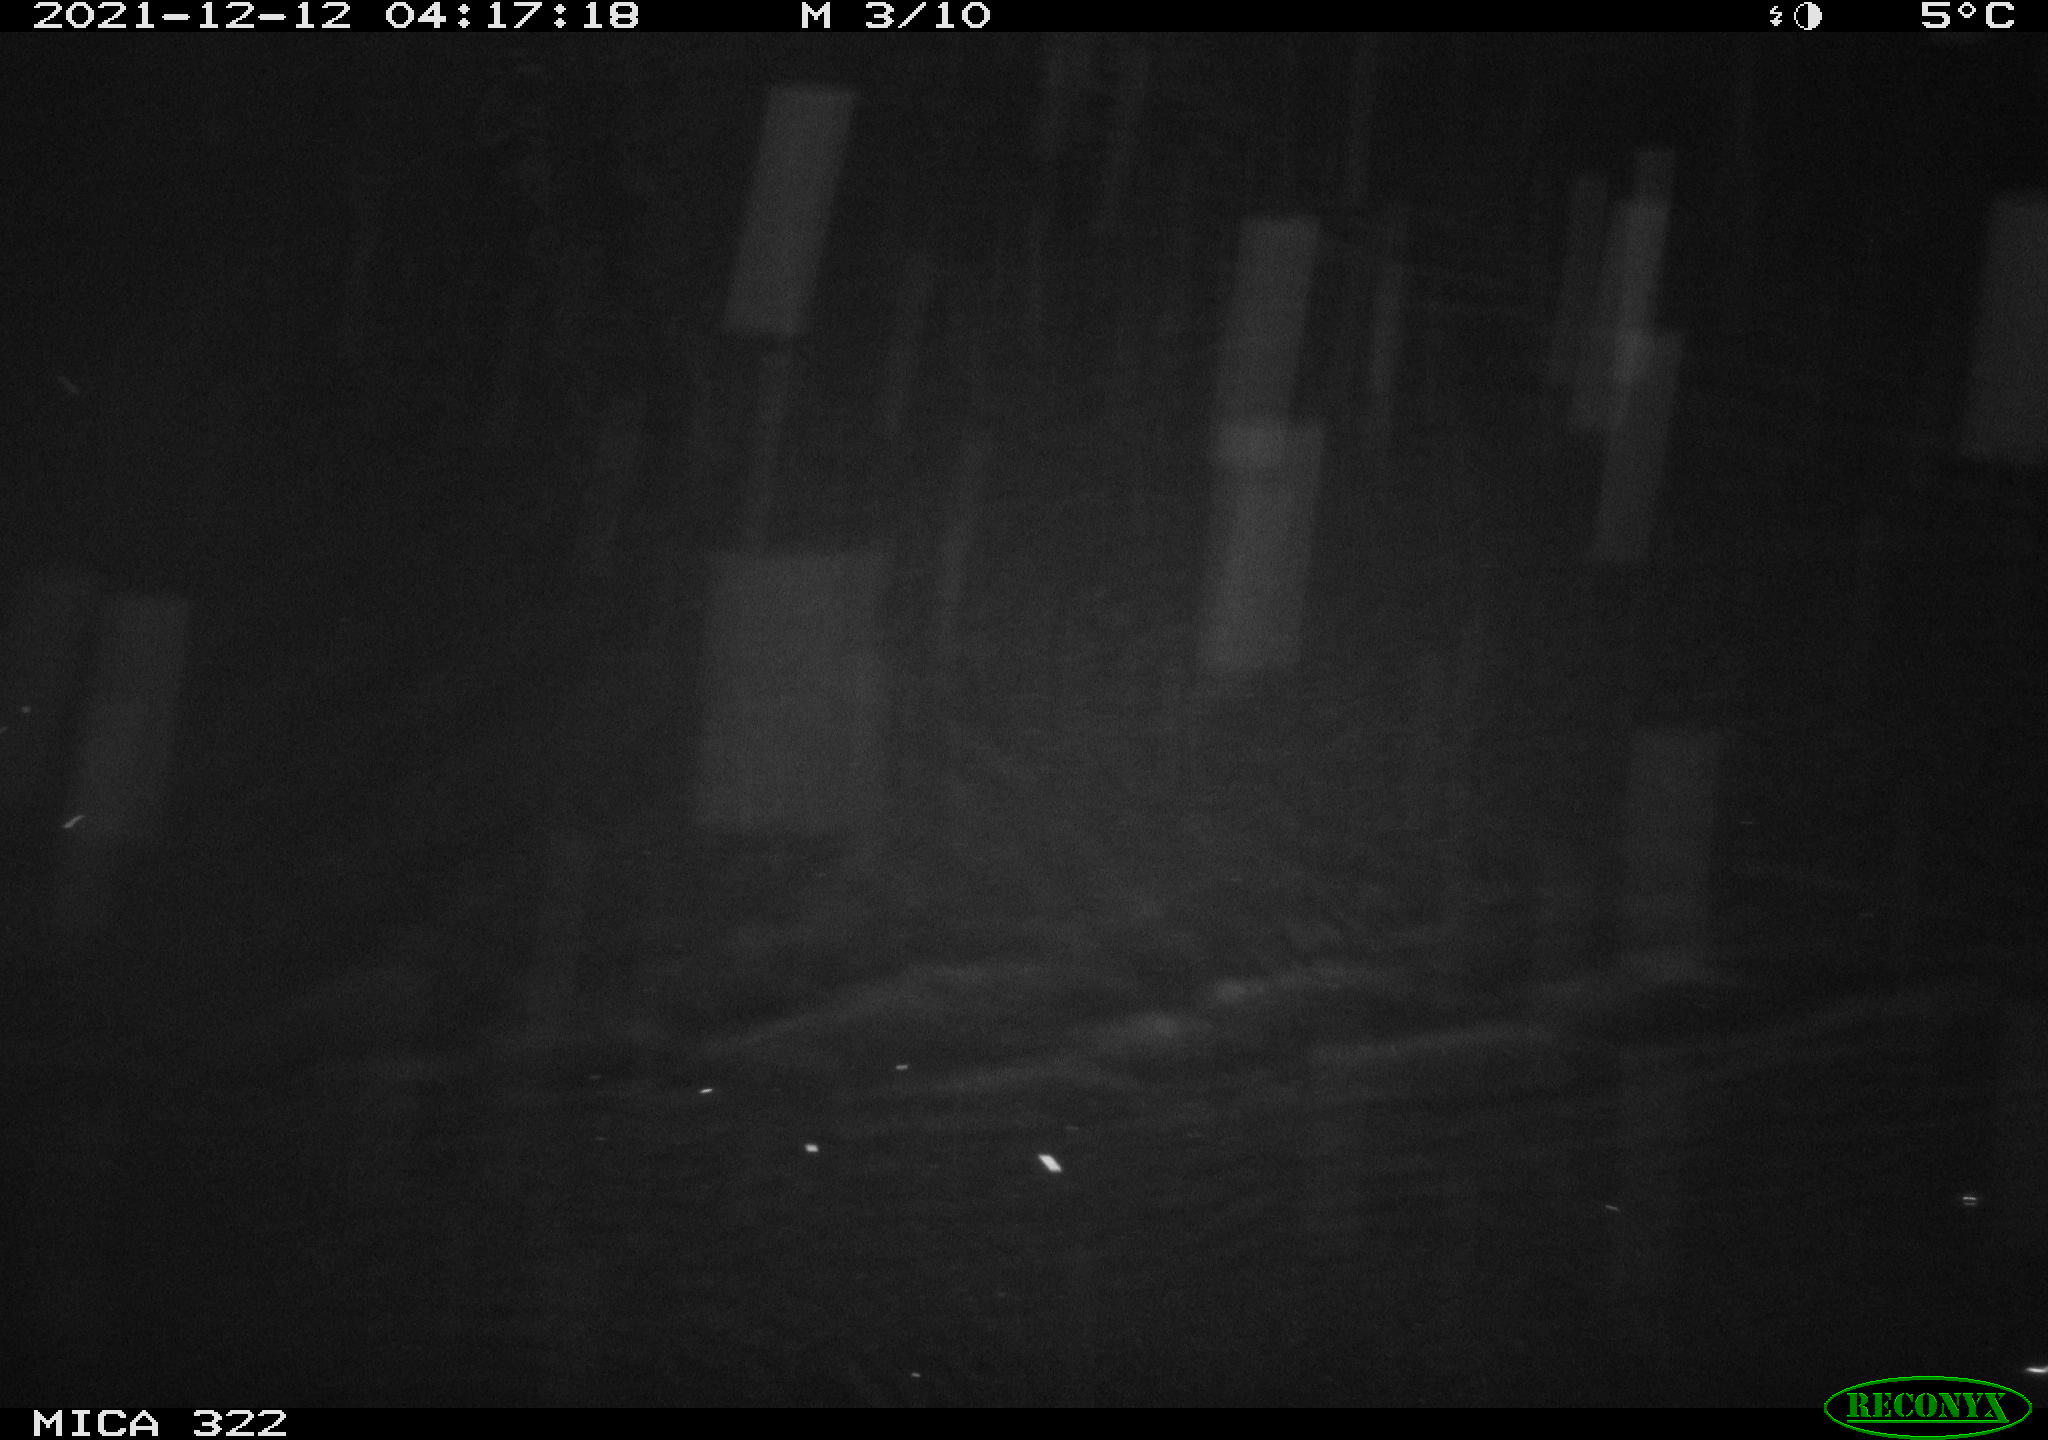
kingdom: Animalia
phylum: Chordata
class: Mammalia
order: Rodentia
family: Muridae
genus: Rattus
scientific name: Rattus norvegicus
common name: Brown rat
